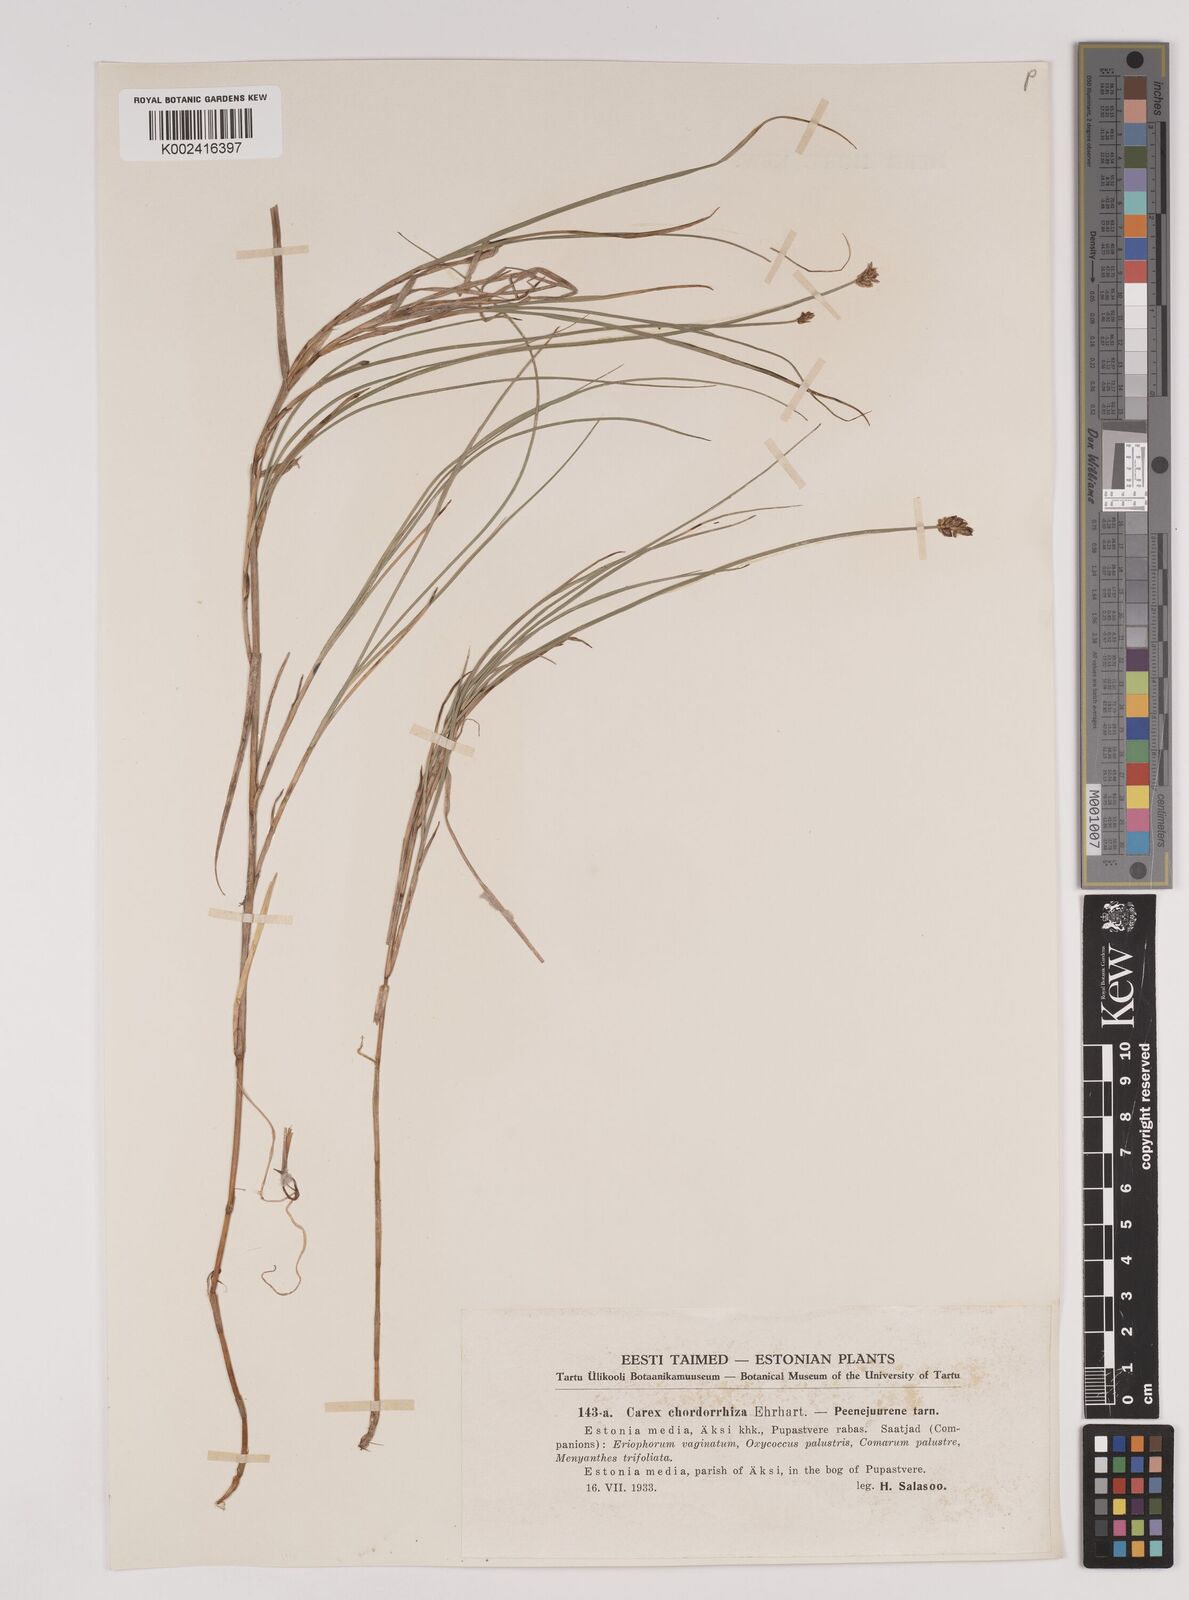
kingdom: Plantae
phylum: Tracheophyta
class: Liliopsida
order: Poales
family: Cyperaceae
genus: Carex
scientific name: Carex chordorrhiza
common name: String sedge
